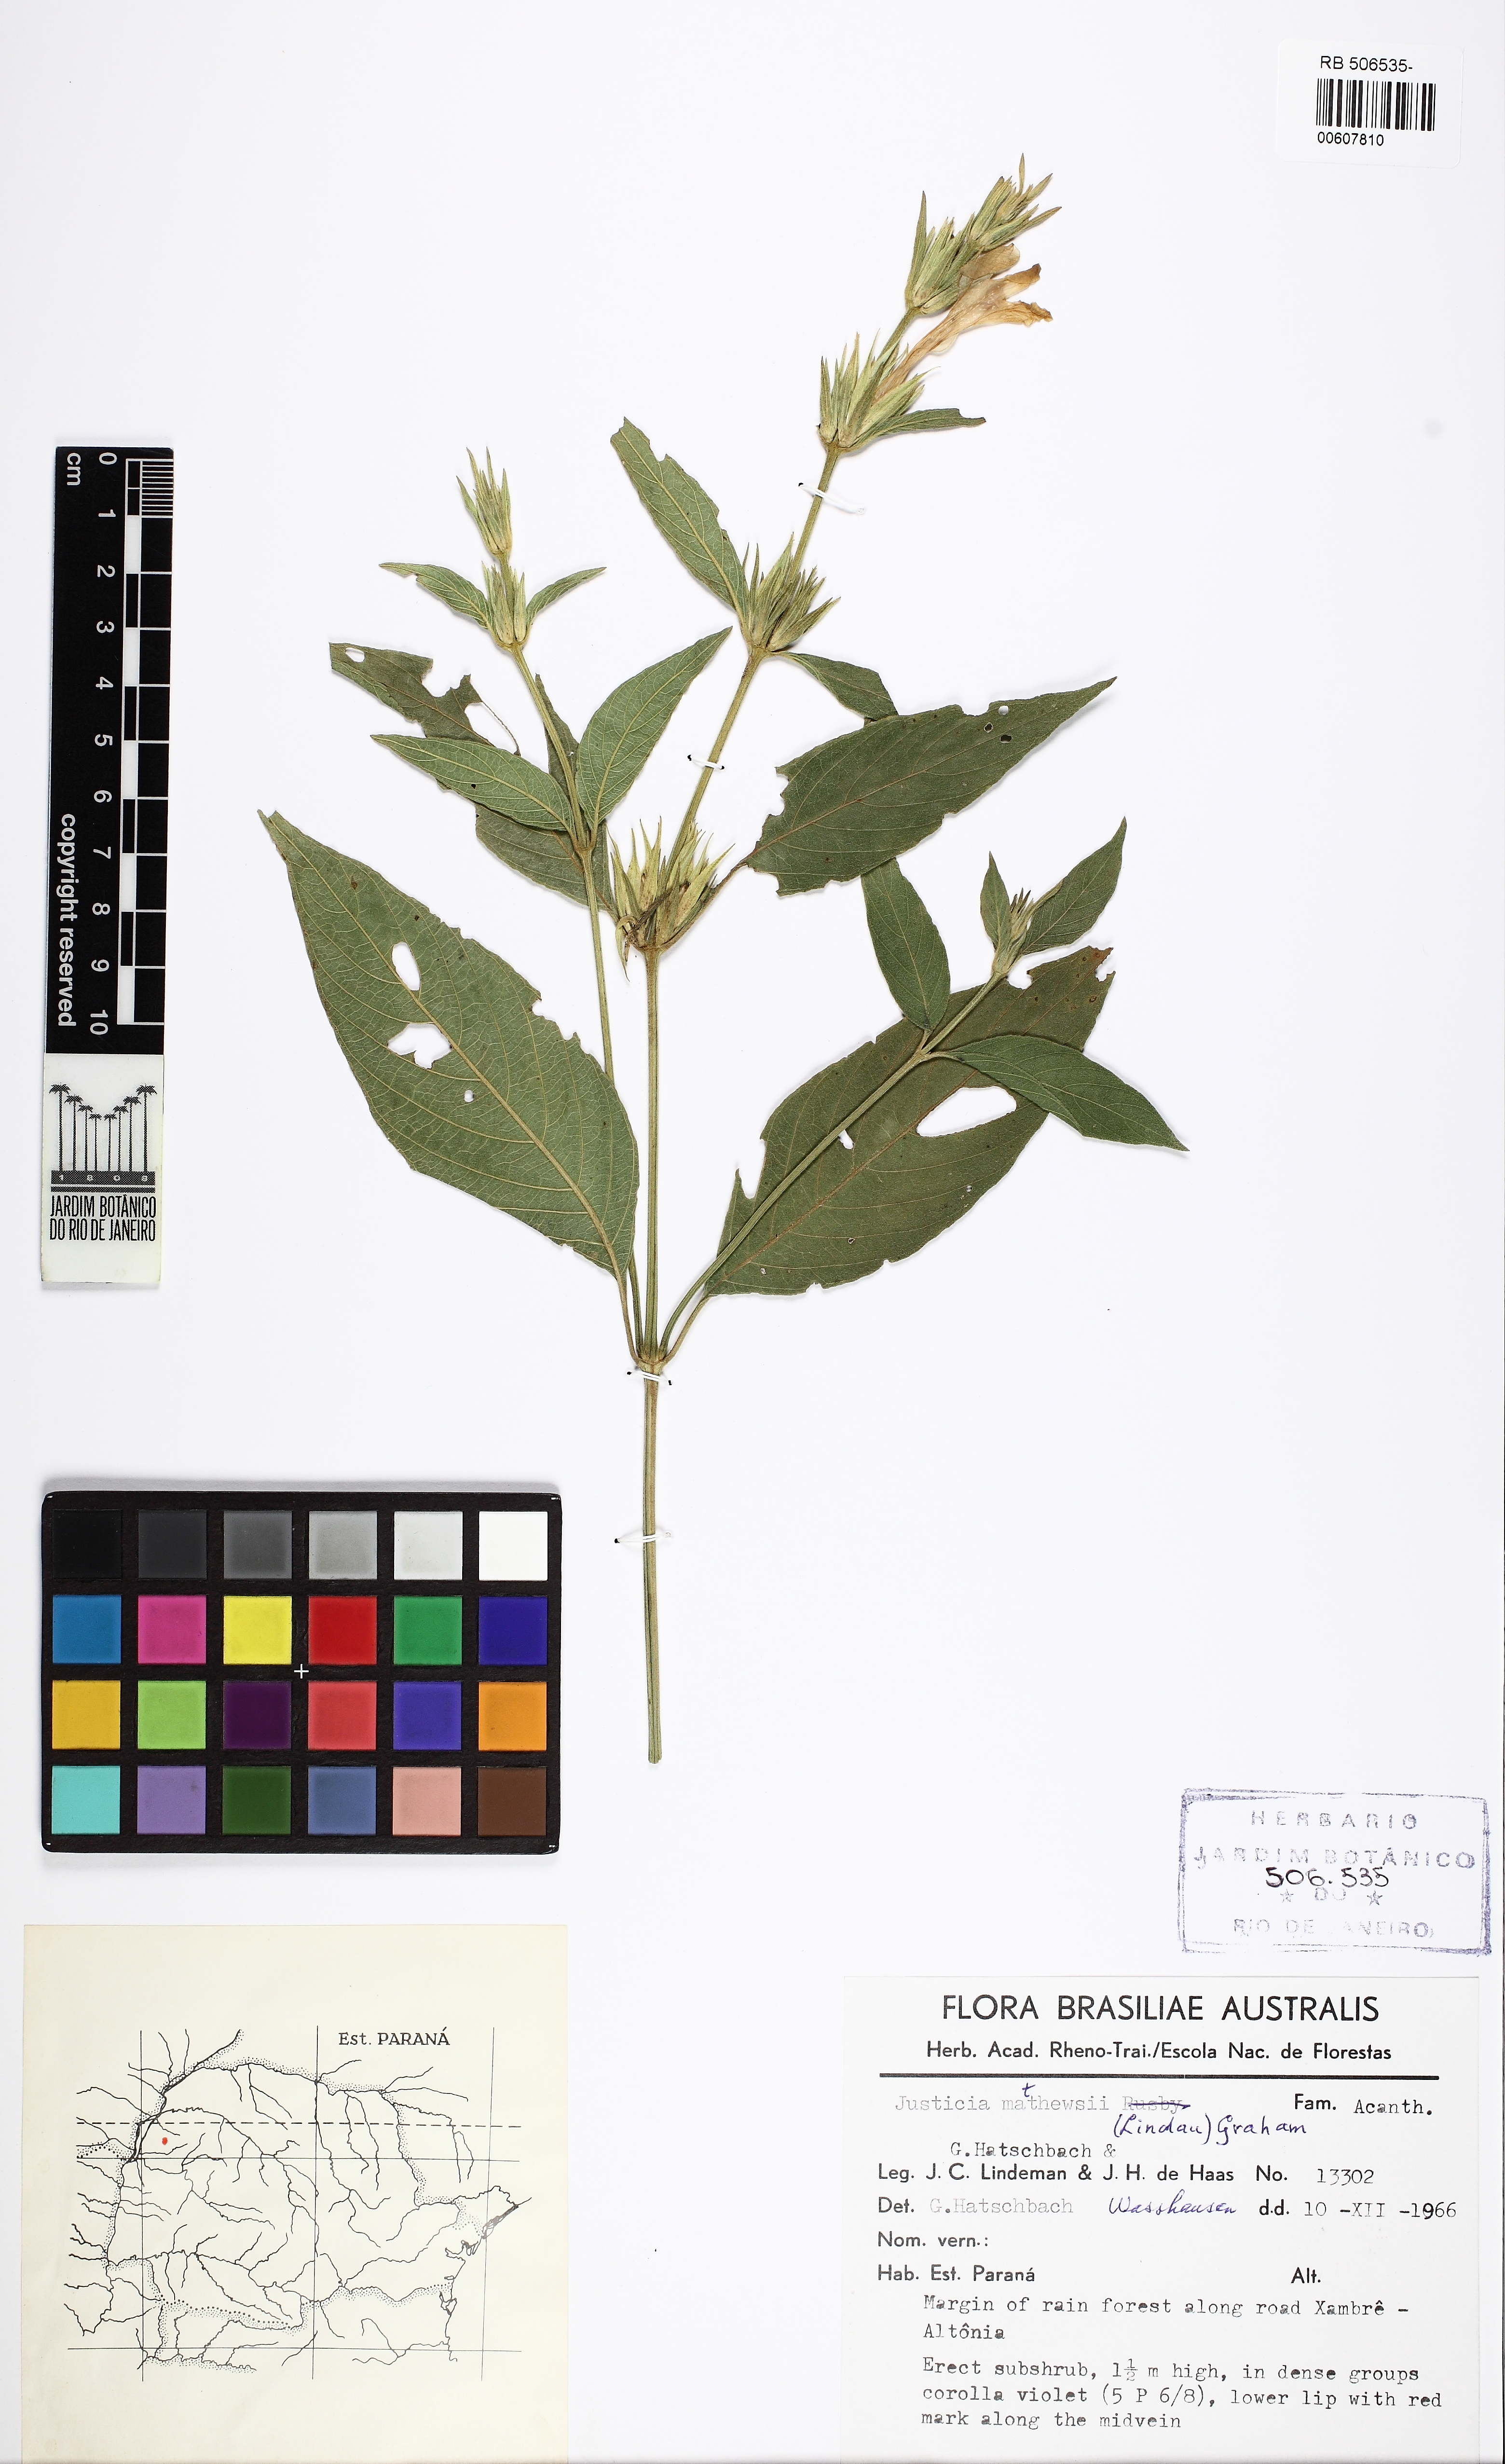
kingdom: Plantae
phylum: Tracheophyta
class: Magnoliopsida
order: Lamiales
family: Acanthaceae
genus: Justicia
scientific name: Justicia rusbyi
